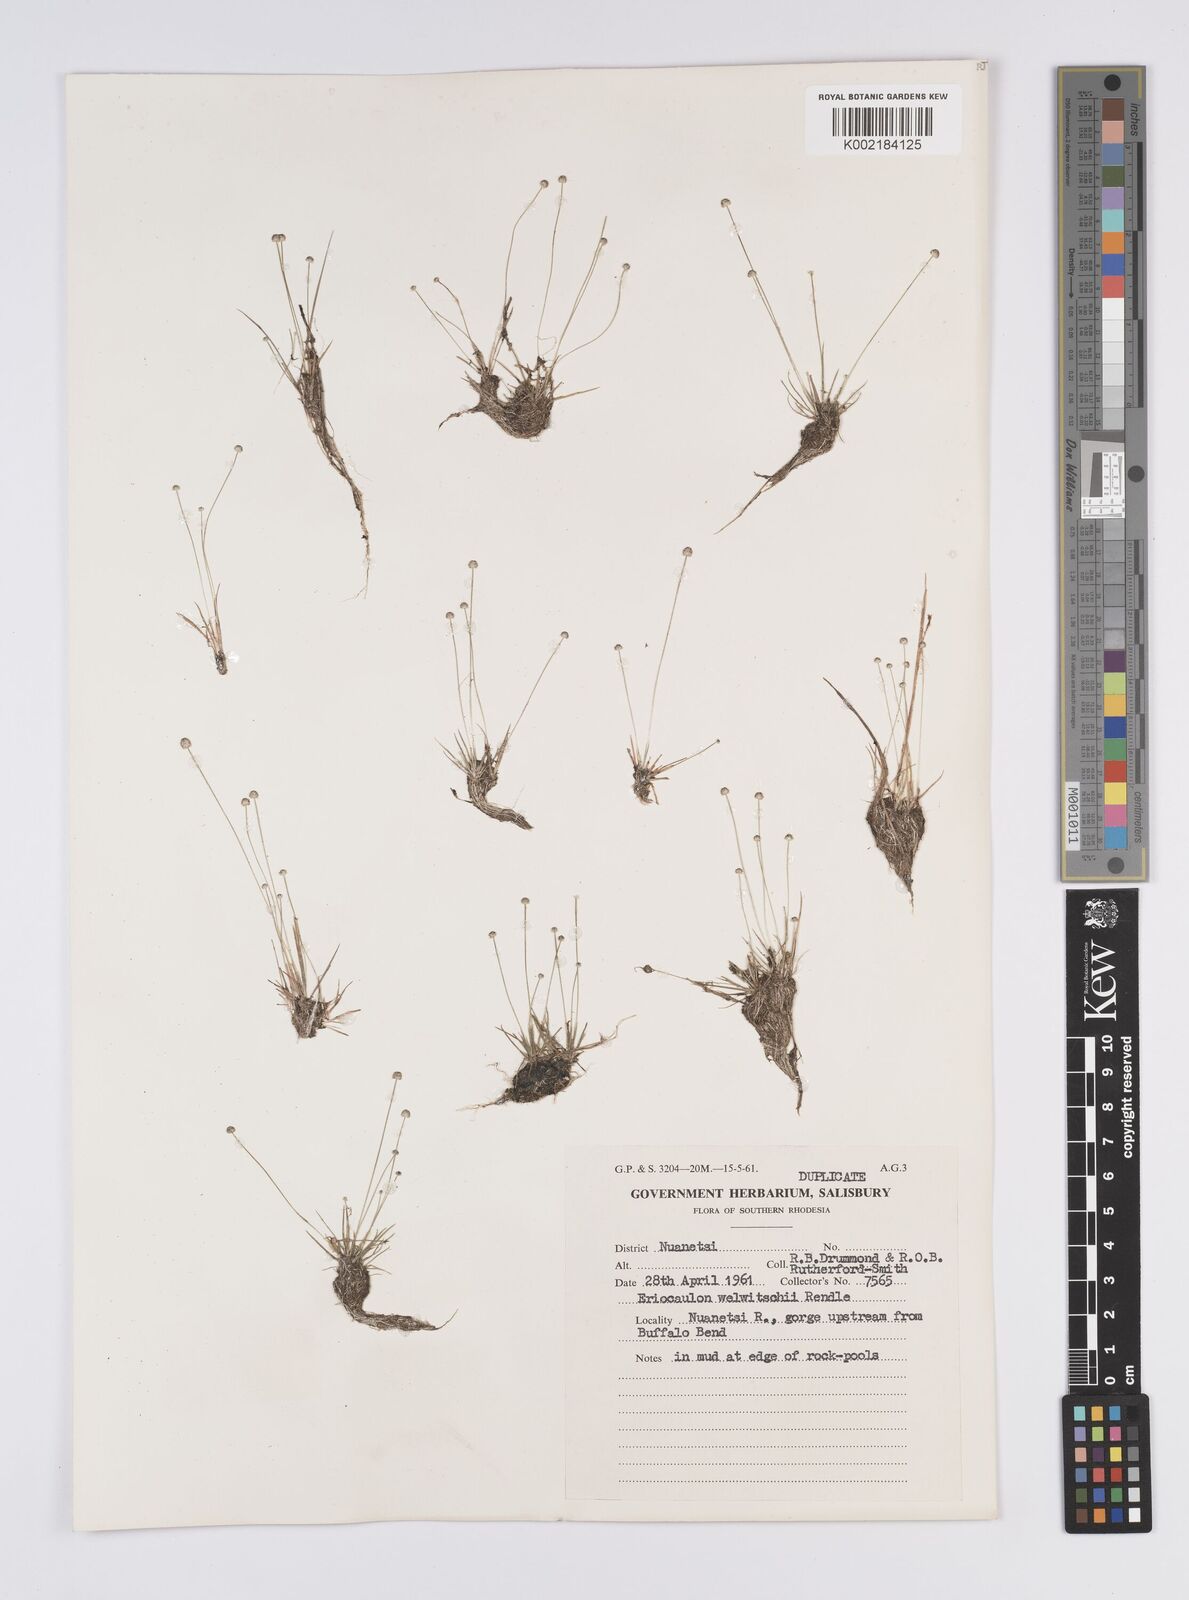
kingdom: Plantae
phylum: Tracheophyta
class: Liliopsida
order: Poales
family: Eriocaulaceae
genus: Eriocaulon
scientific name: Eriocaulon welwitschii
